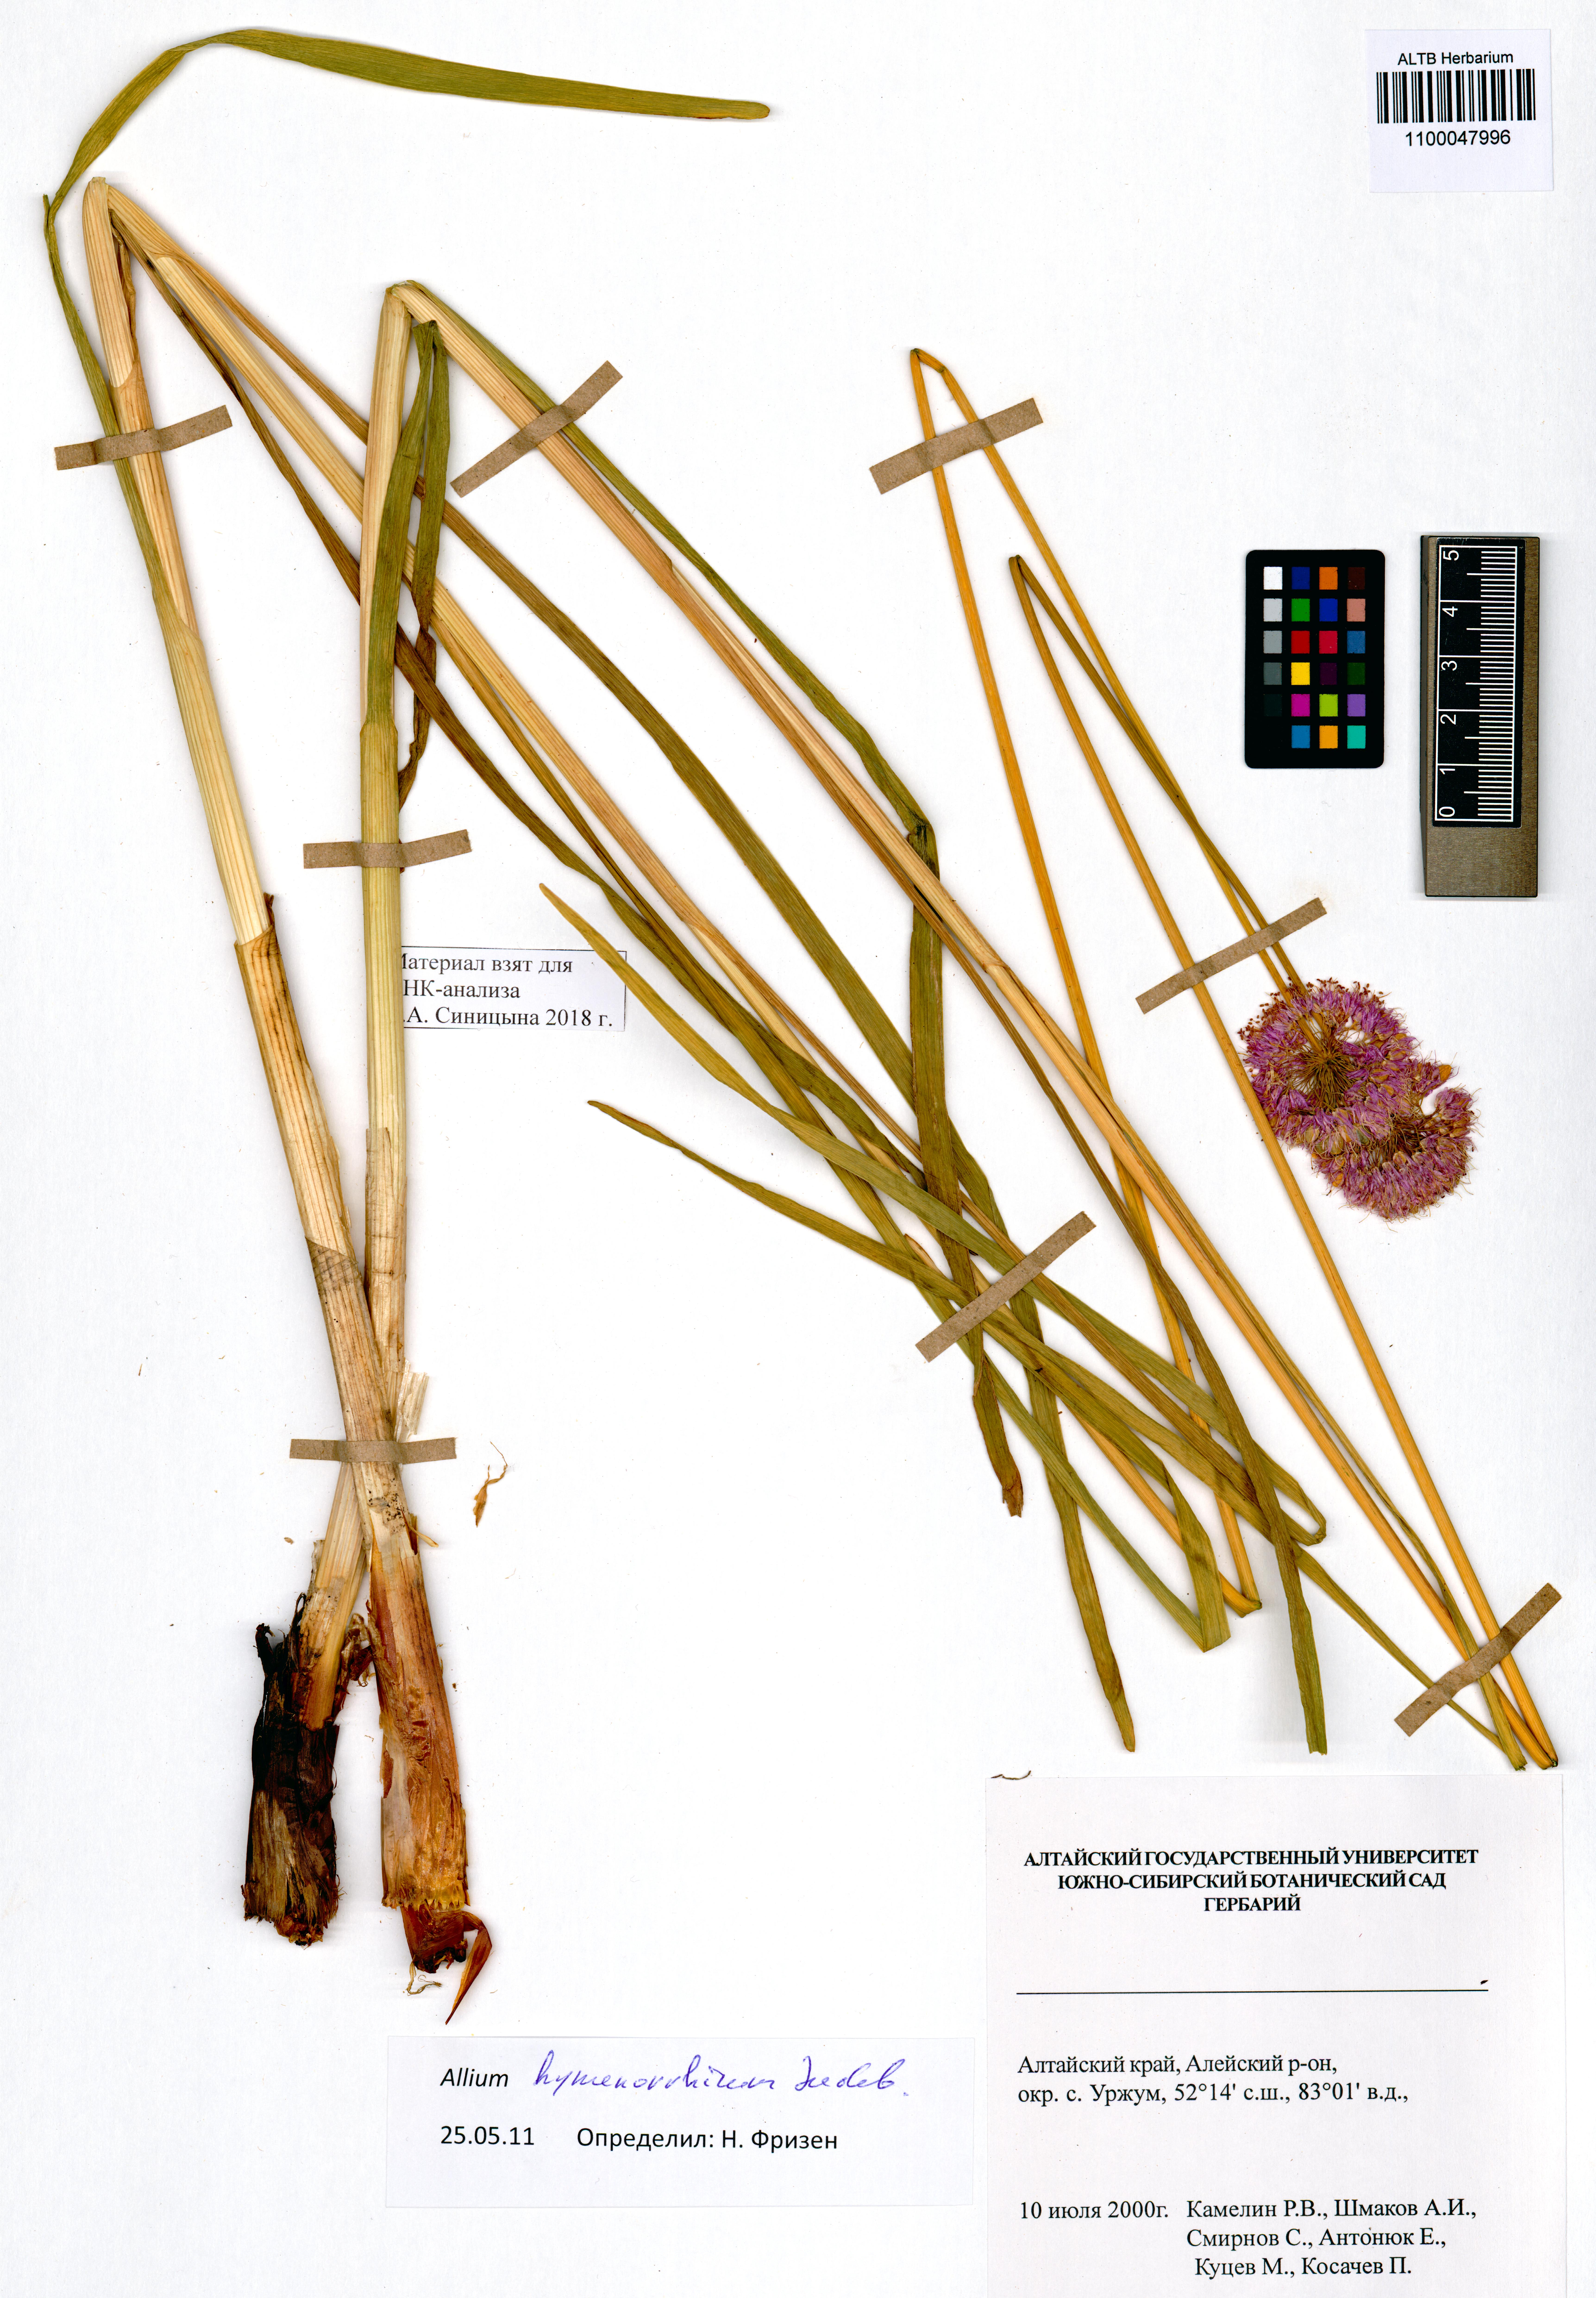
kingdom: Plantae
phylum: Tracheophyta
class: Liliopsida
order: Asparagales
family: Amaryllidaceae
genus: Allium
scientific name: Allium hymenorhizum
